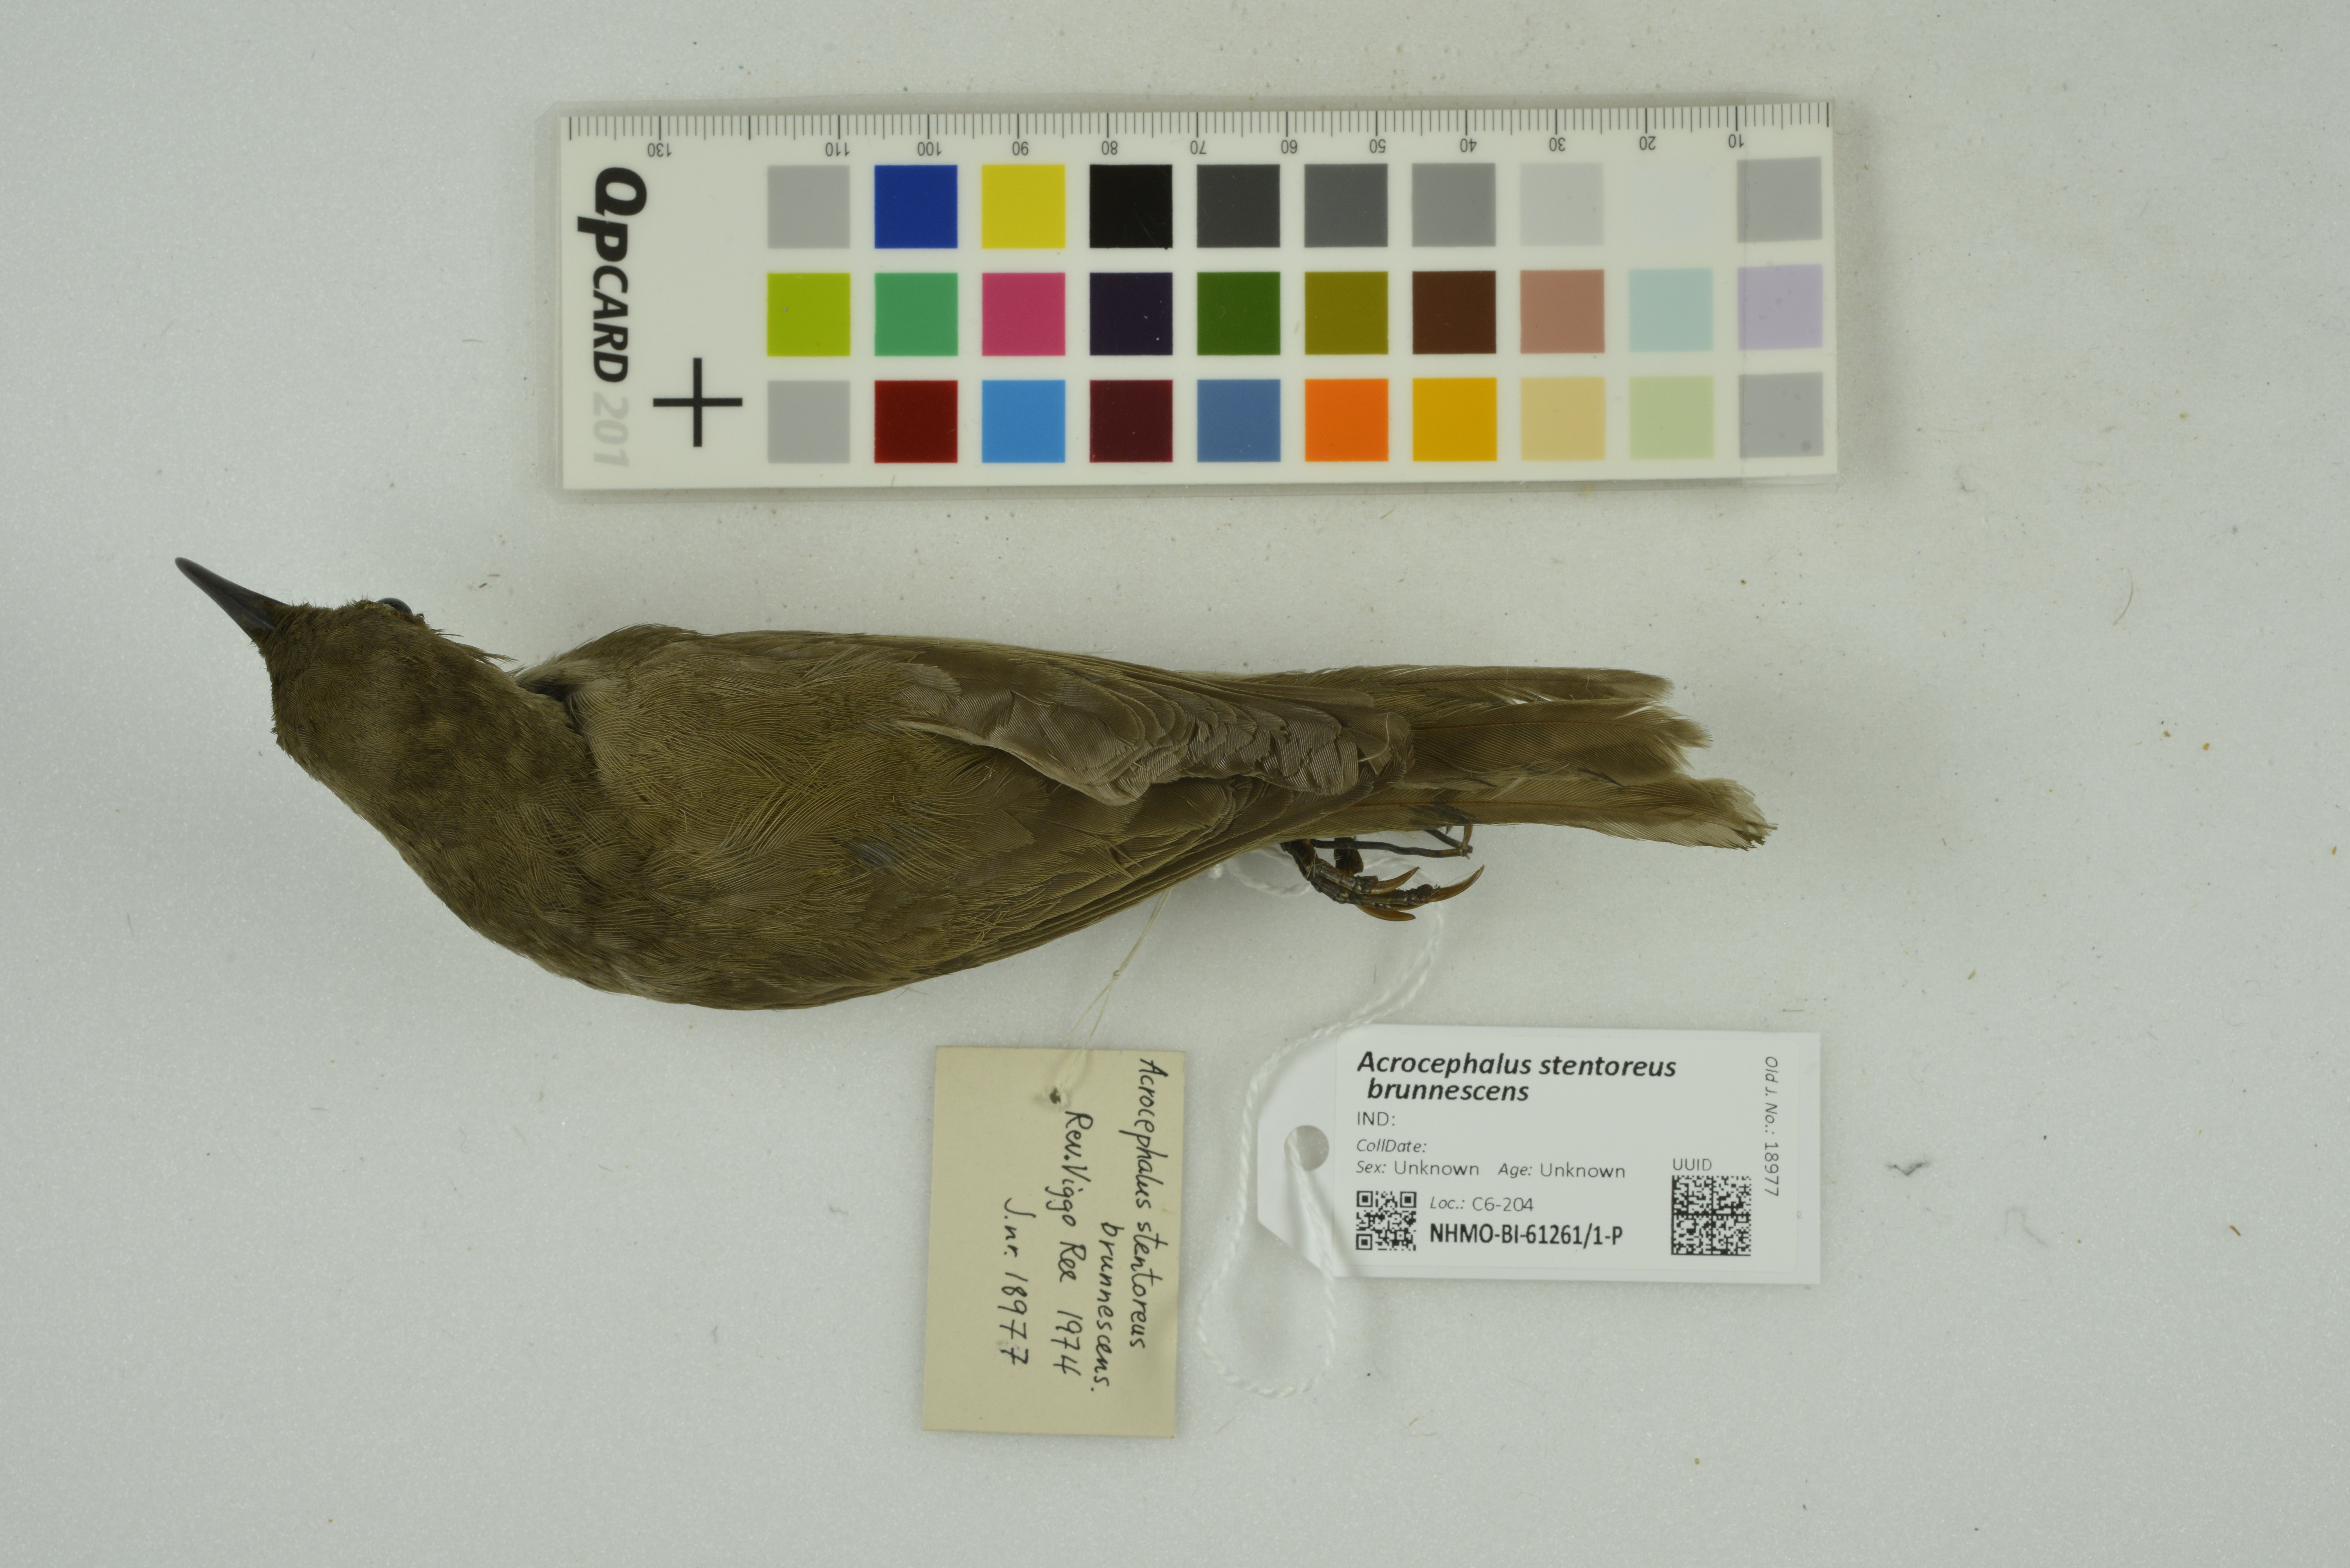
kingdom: Animalia
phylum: Chordata
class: Aves
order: Passeriformes
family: Acrocephalidae
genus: Acrocephalus
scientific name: Acrocephalus stentoreus
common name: Clamorous reed warbler
